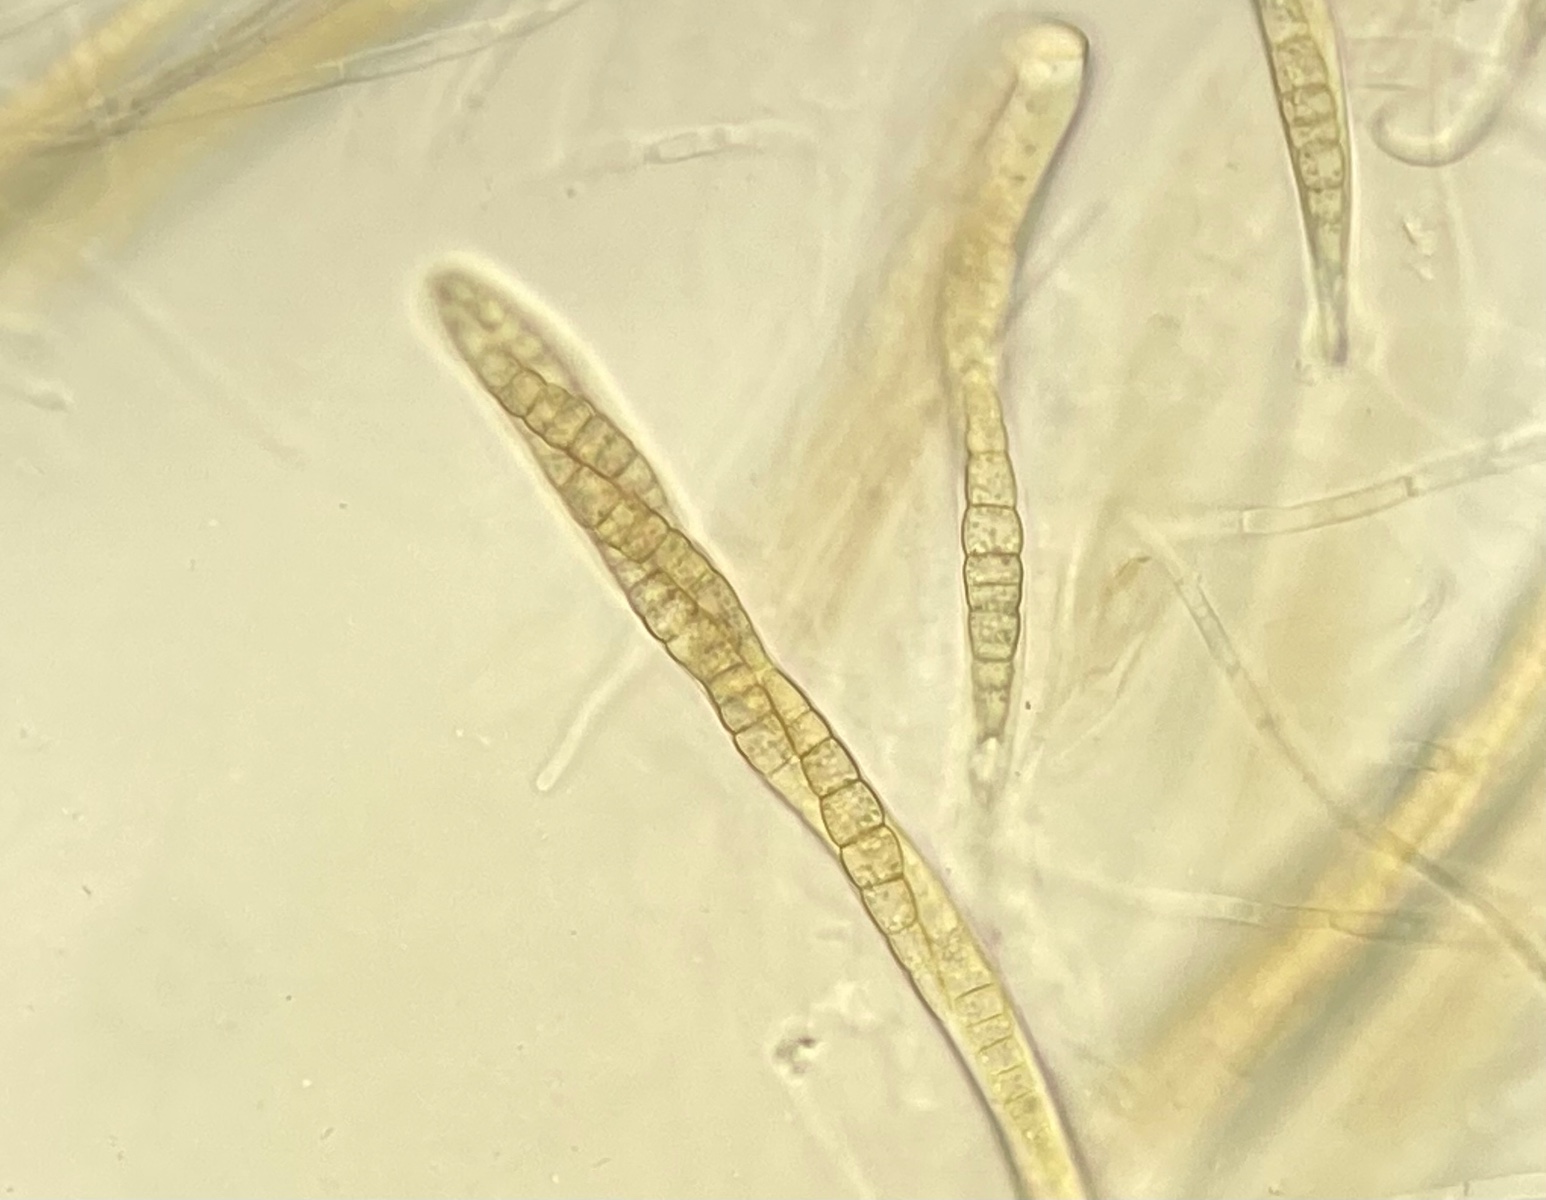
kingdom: Fungi
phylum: Ascomycota
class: Dothideomycetes
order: Pleosporales
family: Leptosphaeriaceae
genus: Leptosphaeria
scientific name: Leptosphaeria acuta
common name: spids kulkegle
